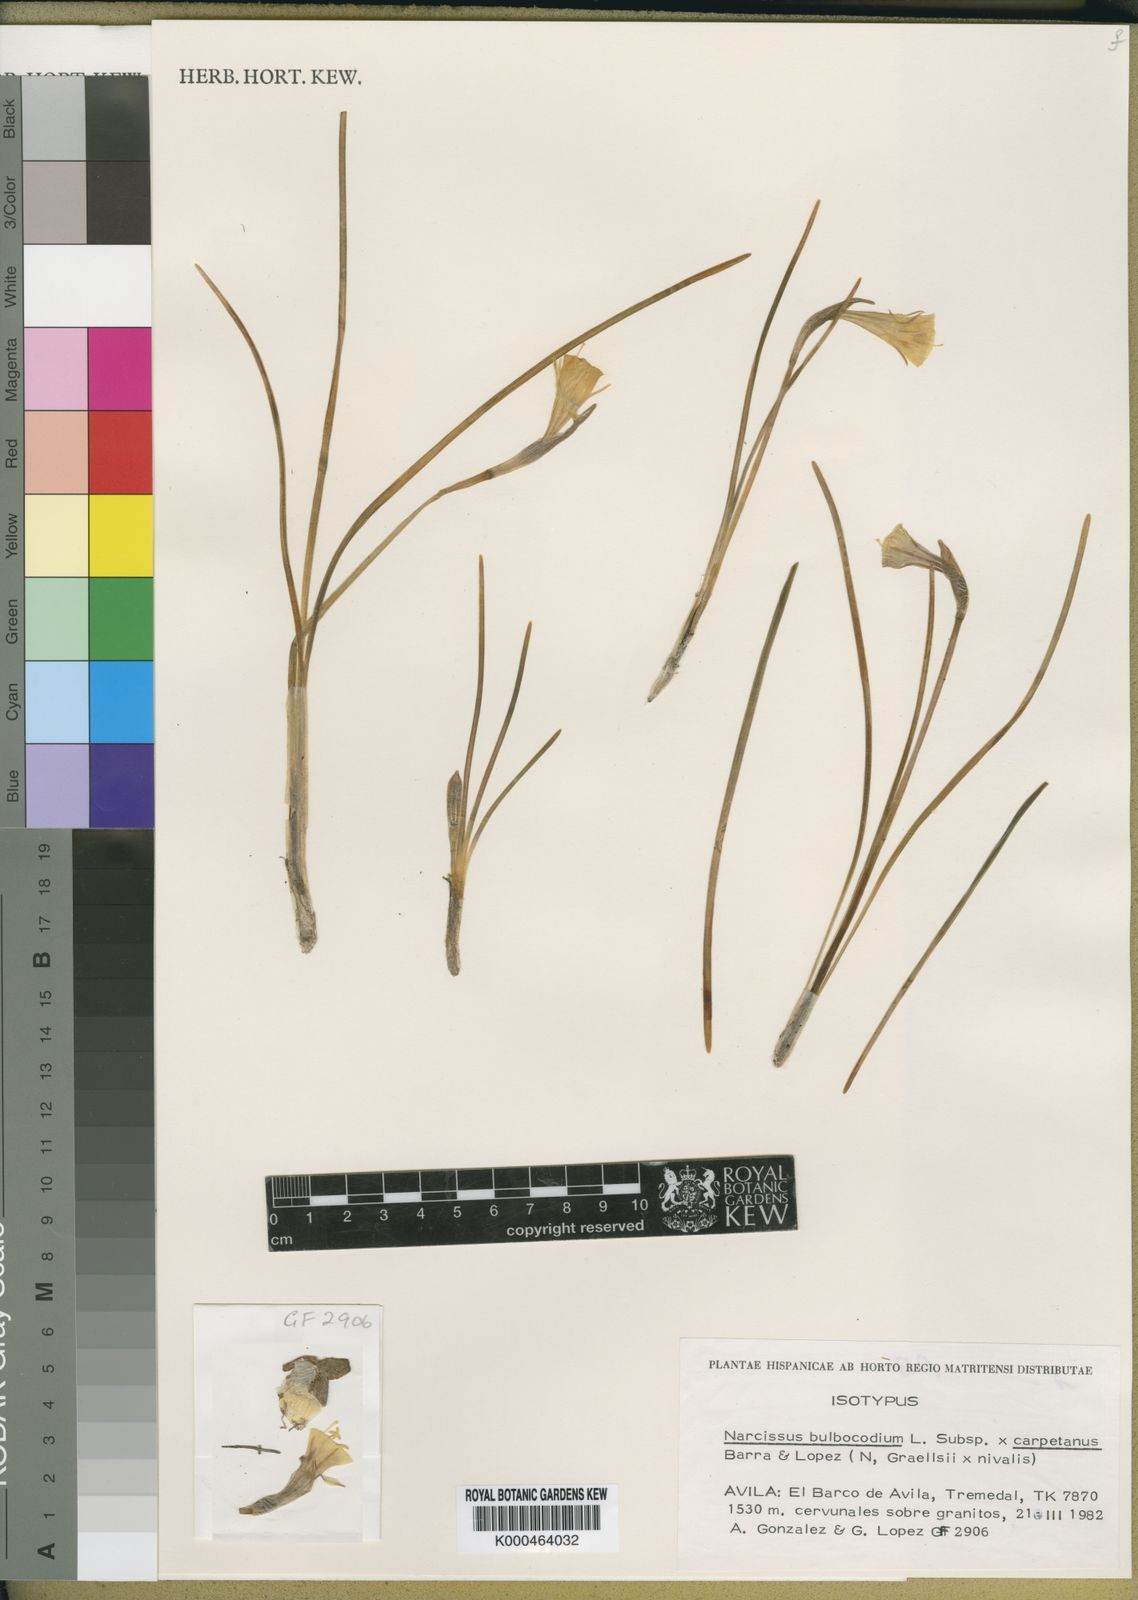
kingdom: Plantae
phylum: Tracheophyta
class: Liliopsida
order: Asparagales
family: Amaryllidaceae
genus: Narcissus
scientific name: Narcissus bulbocodium
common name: Hoop-petticoat daffodil
